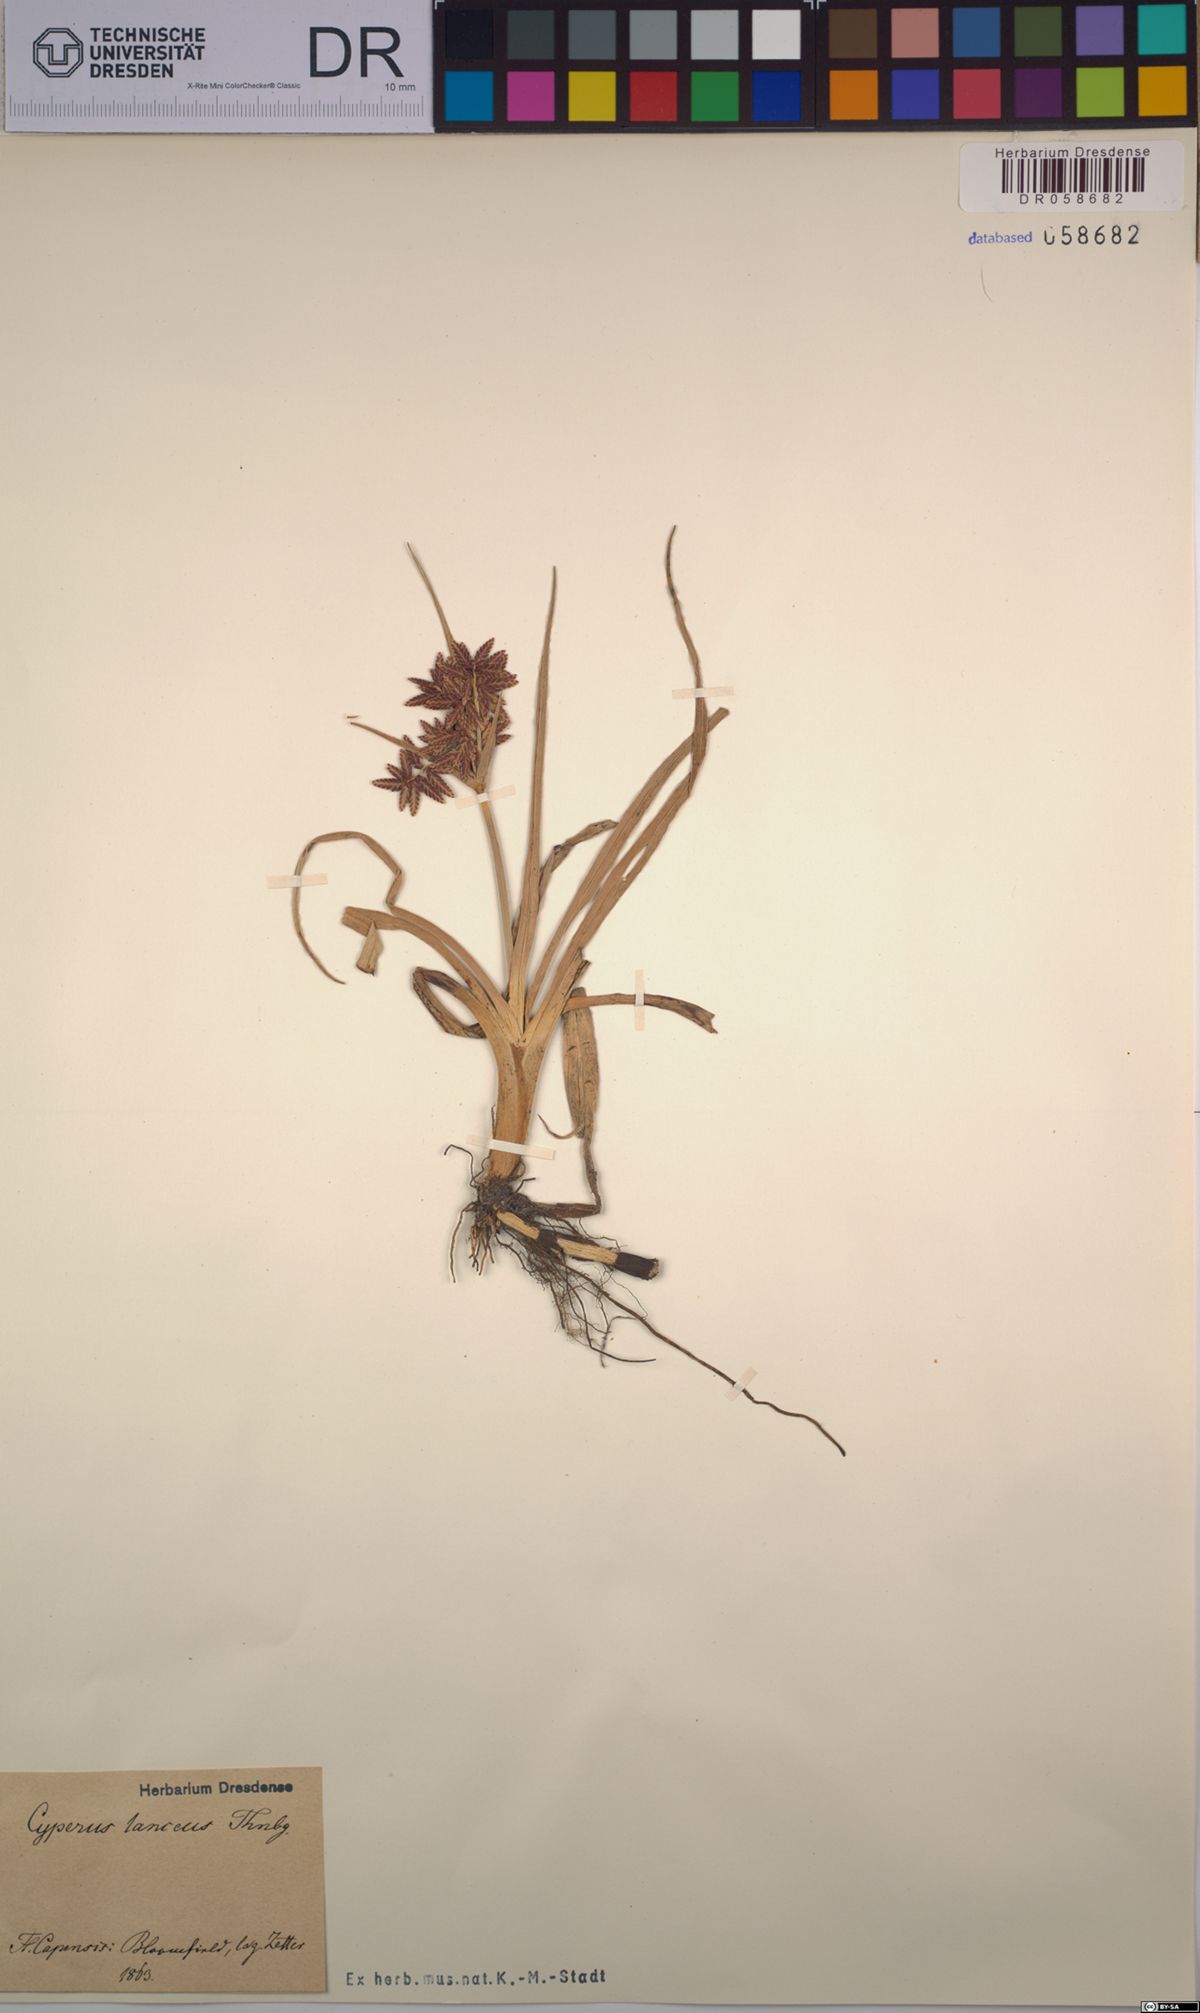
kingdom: Plantae
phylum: Tracheophyta
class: Liliopsida
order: Poales
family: Cyperaceae
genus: Cyperus
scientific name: Cyperus nitidus
